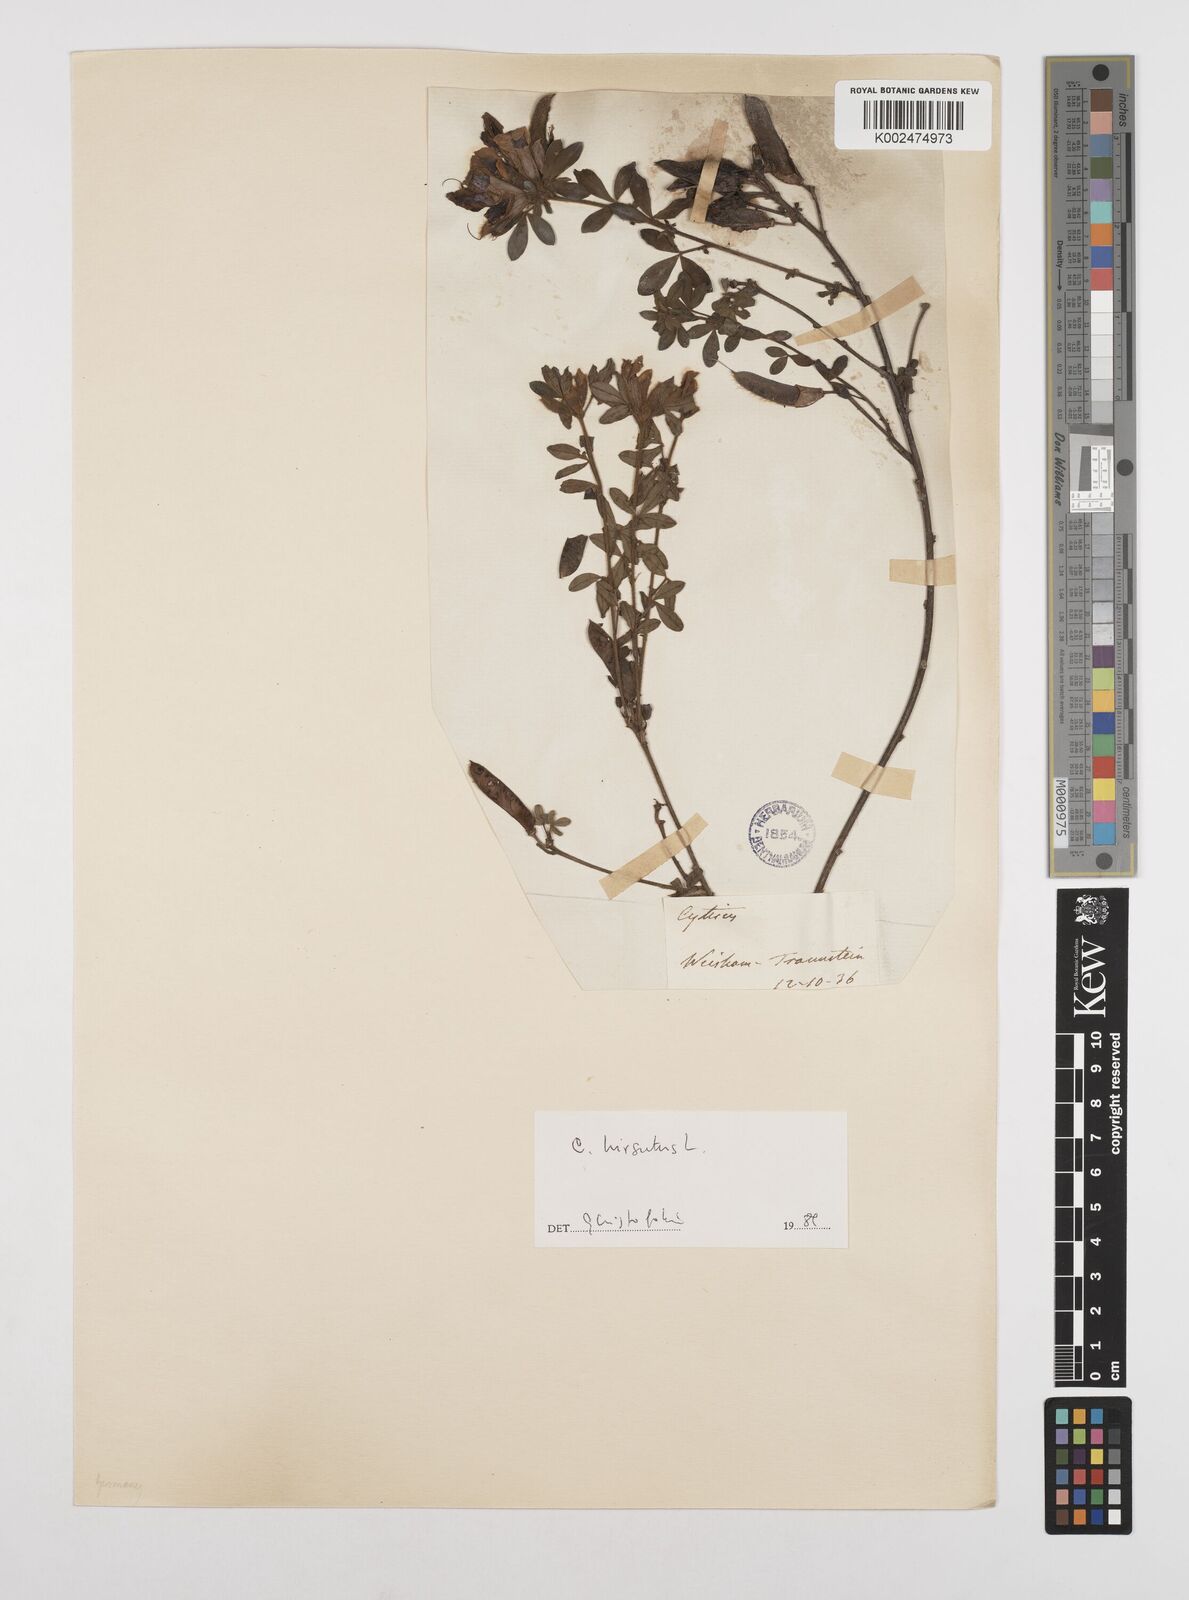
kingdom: Plantae
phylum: Tracheophyta
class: Magnoliopsida
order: Fabales
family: Fabaceae
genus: Chamaecytisus
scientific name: Chamaecytisus hirsutus
